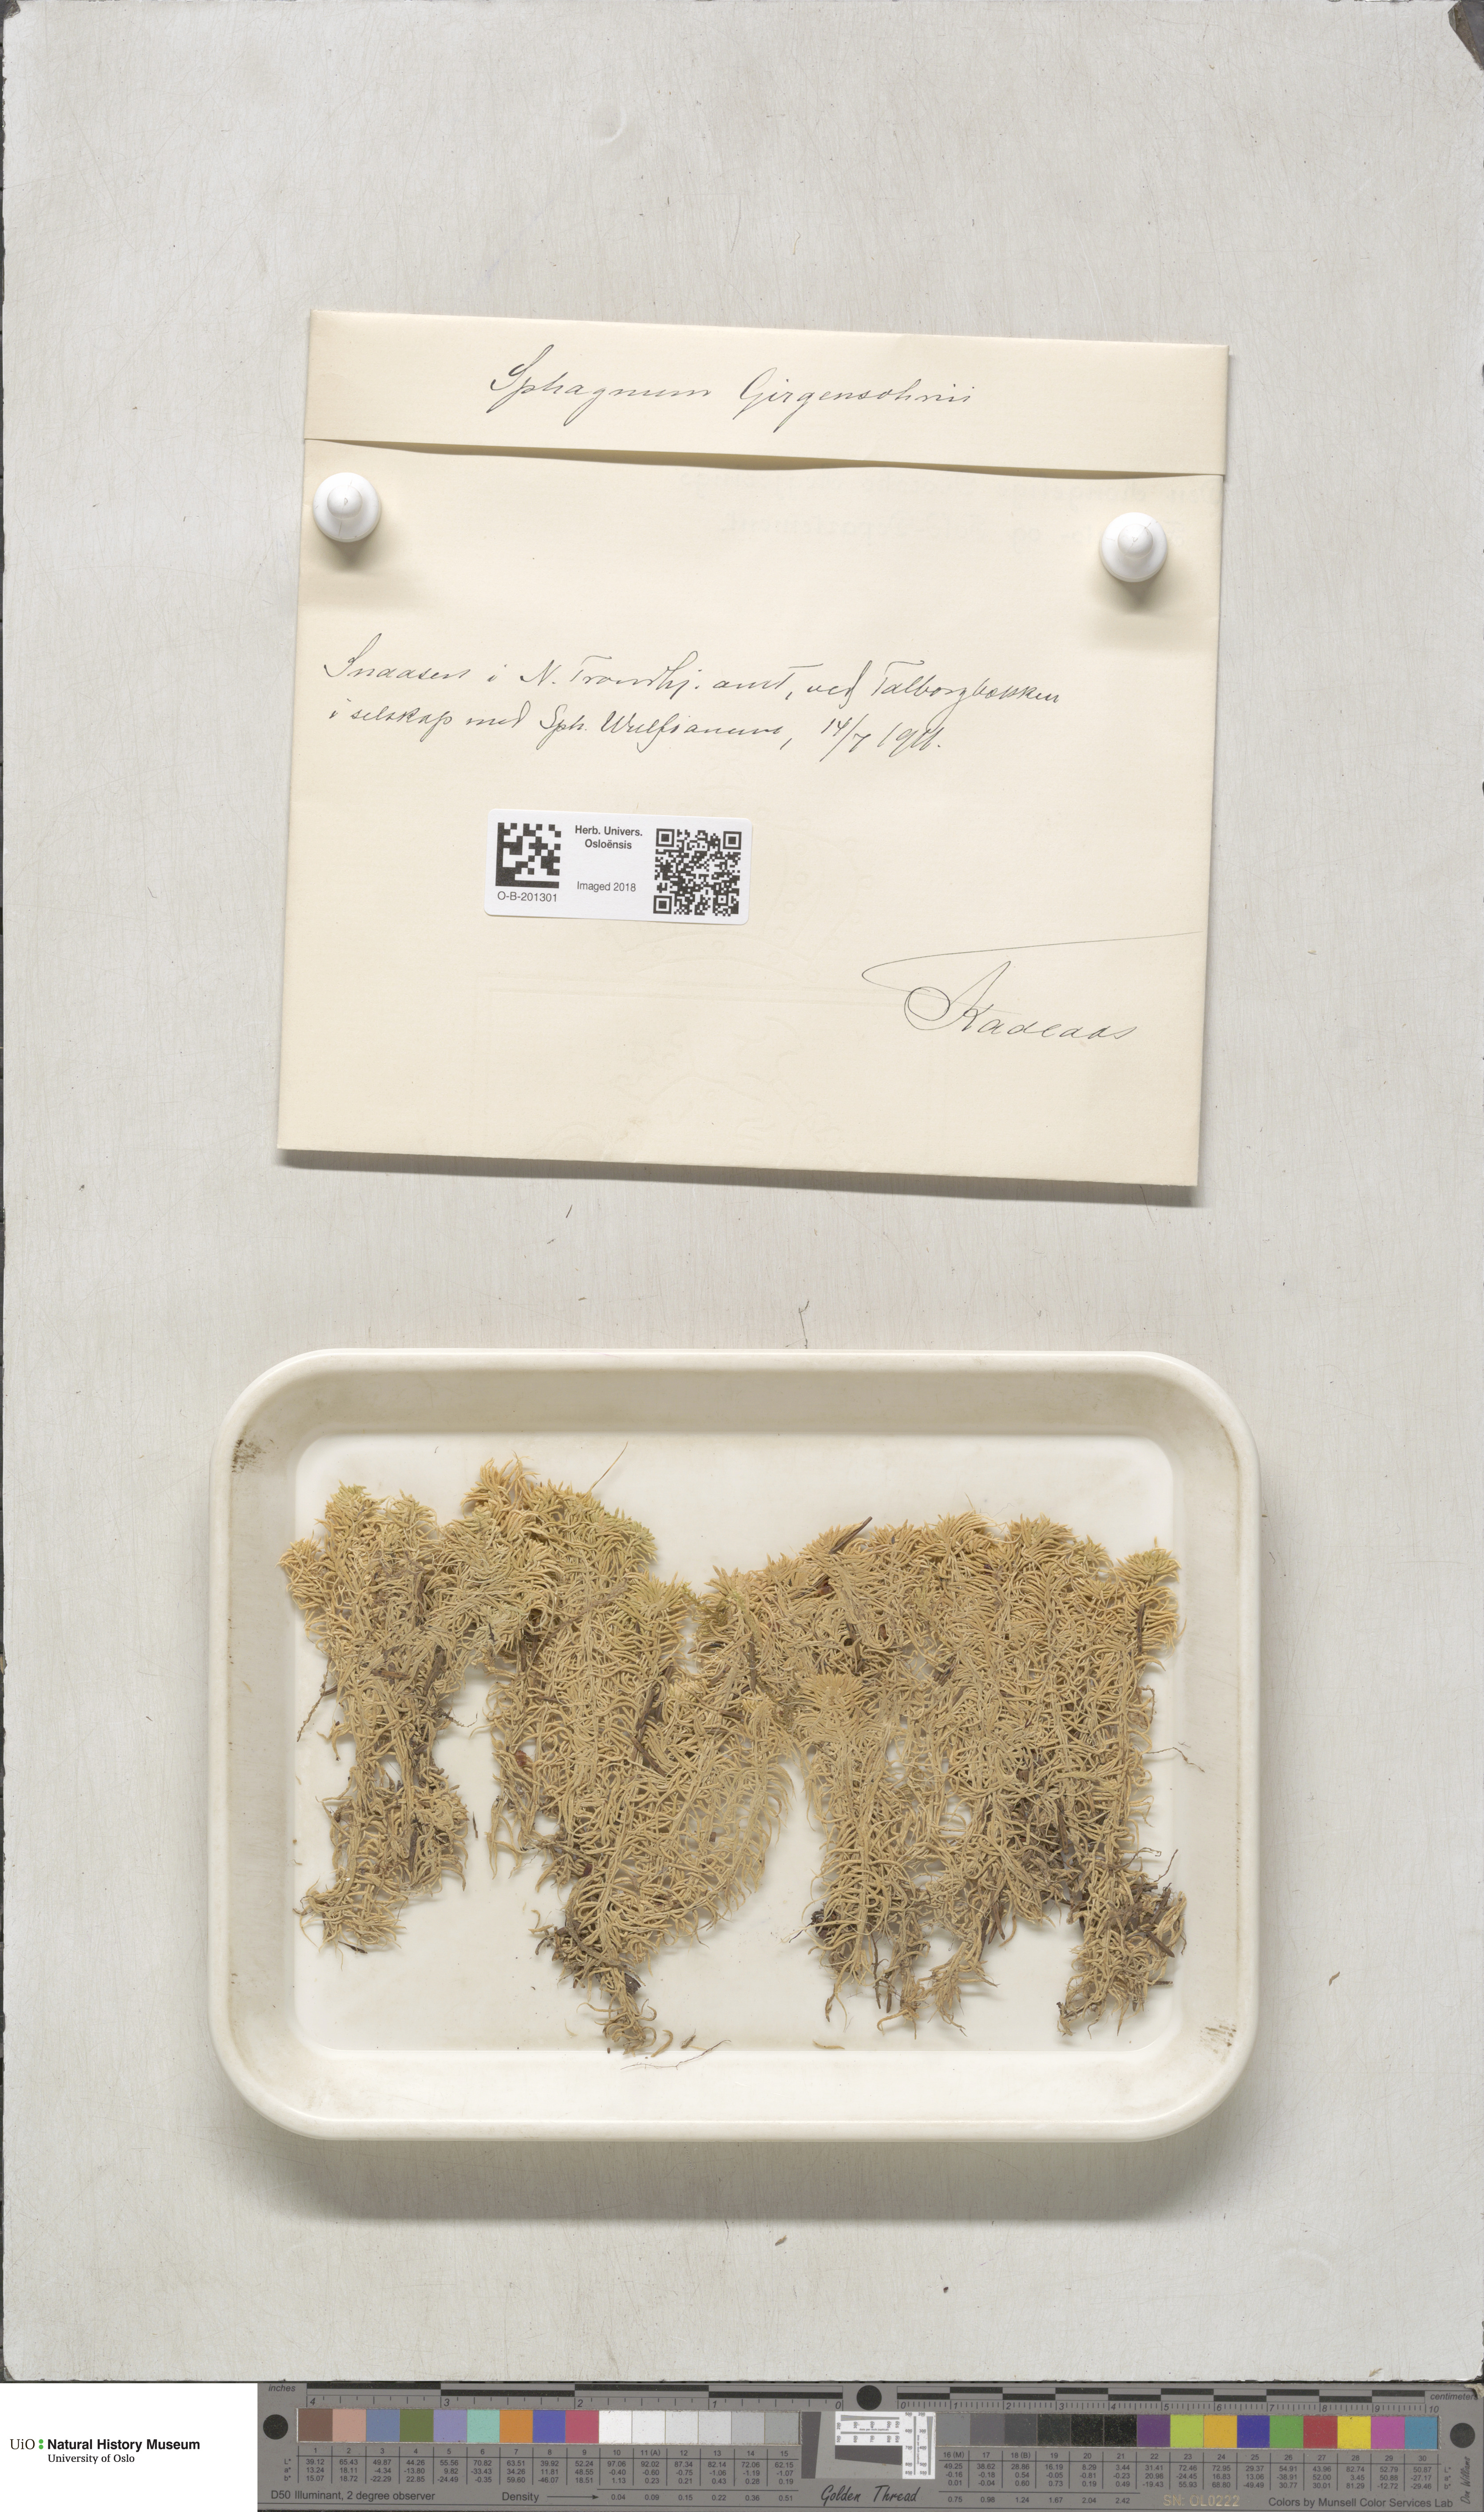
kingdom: Plantae
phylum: Bryophyta
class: Sphagnopsida
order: Sphagnales
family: Sphagnaceae
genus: Sphagnum
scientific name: Sphagnum girgensohnii
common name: Girgensohn's peat moss
